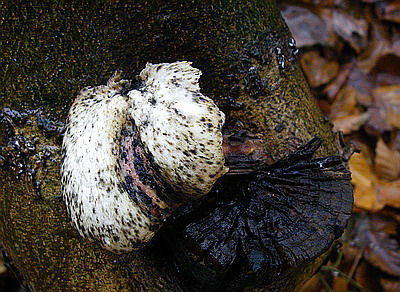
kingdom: Fungi
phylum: Basidiomycota
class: Agaricomycetes
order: Agaricales
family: Pleurotaceae
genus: Pleurotus
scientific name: Pleurotus dryinus
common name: korkagtig østershat
